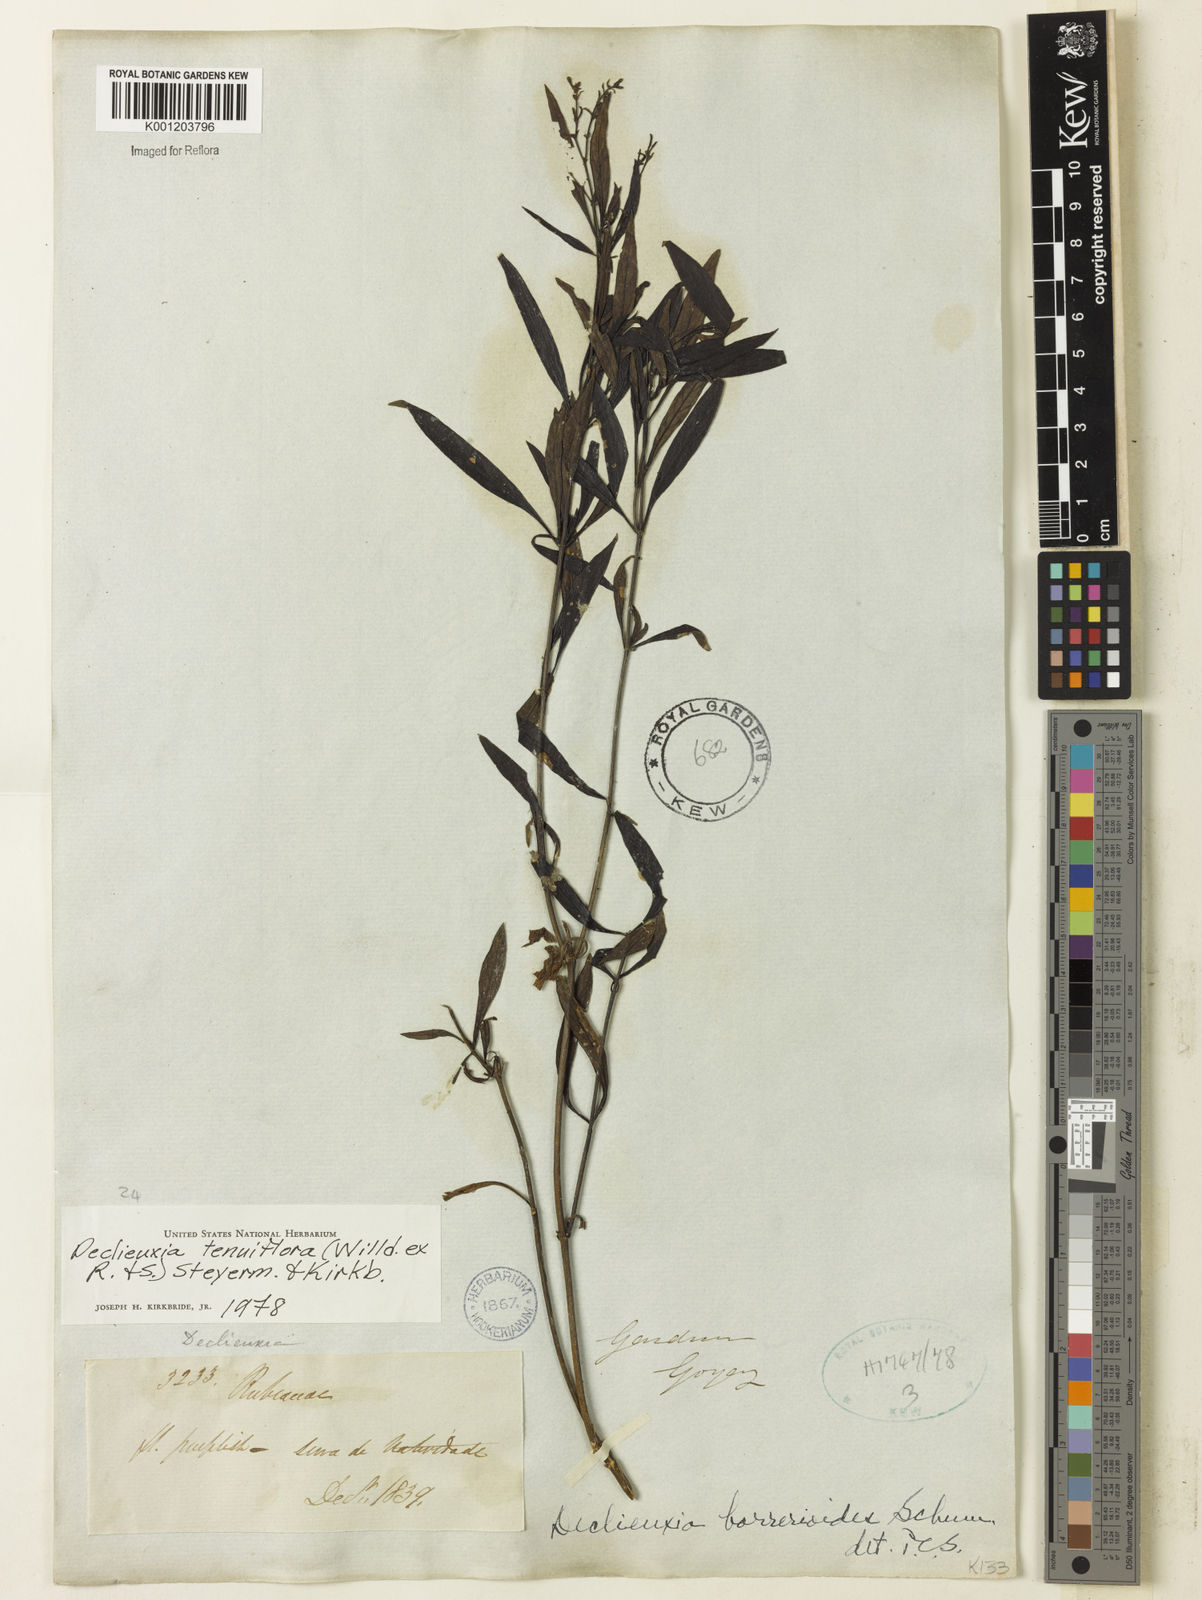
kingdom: Plantae
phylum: Tracheophyta
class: Magnoliopsida
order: Gentianales
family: Rubiaceae
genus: Declieuxia
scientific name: Declieuxia tenuiflora
